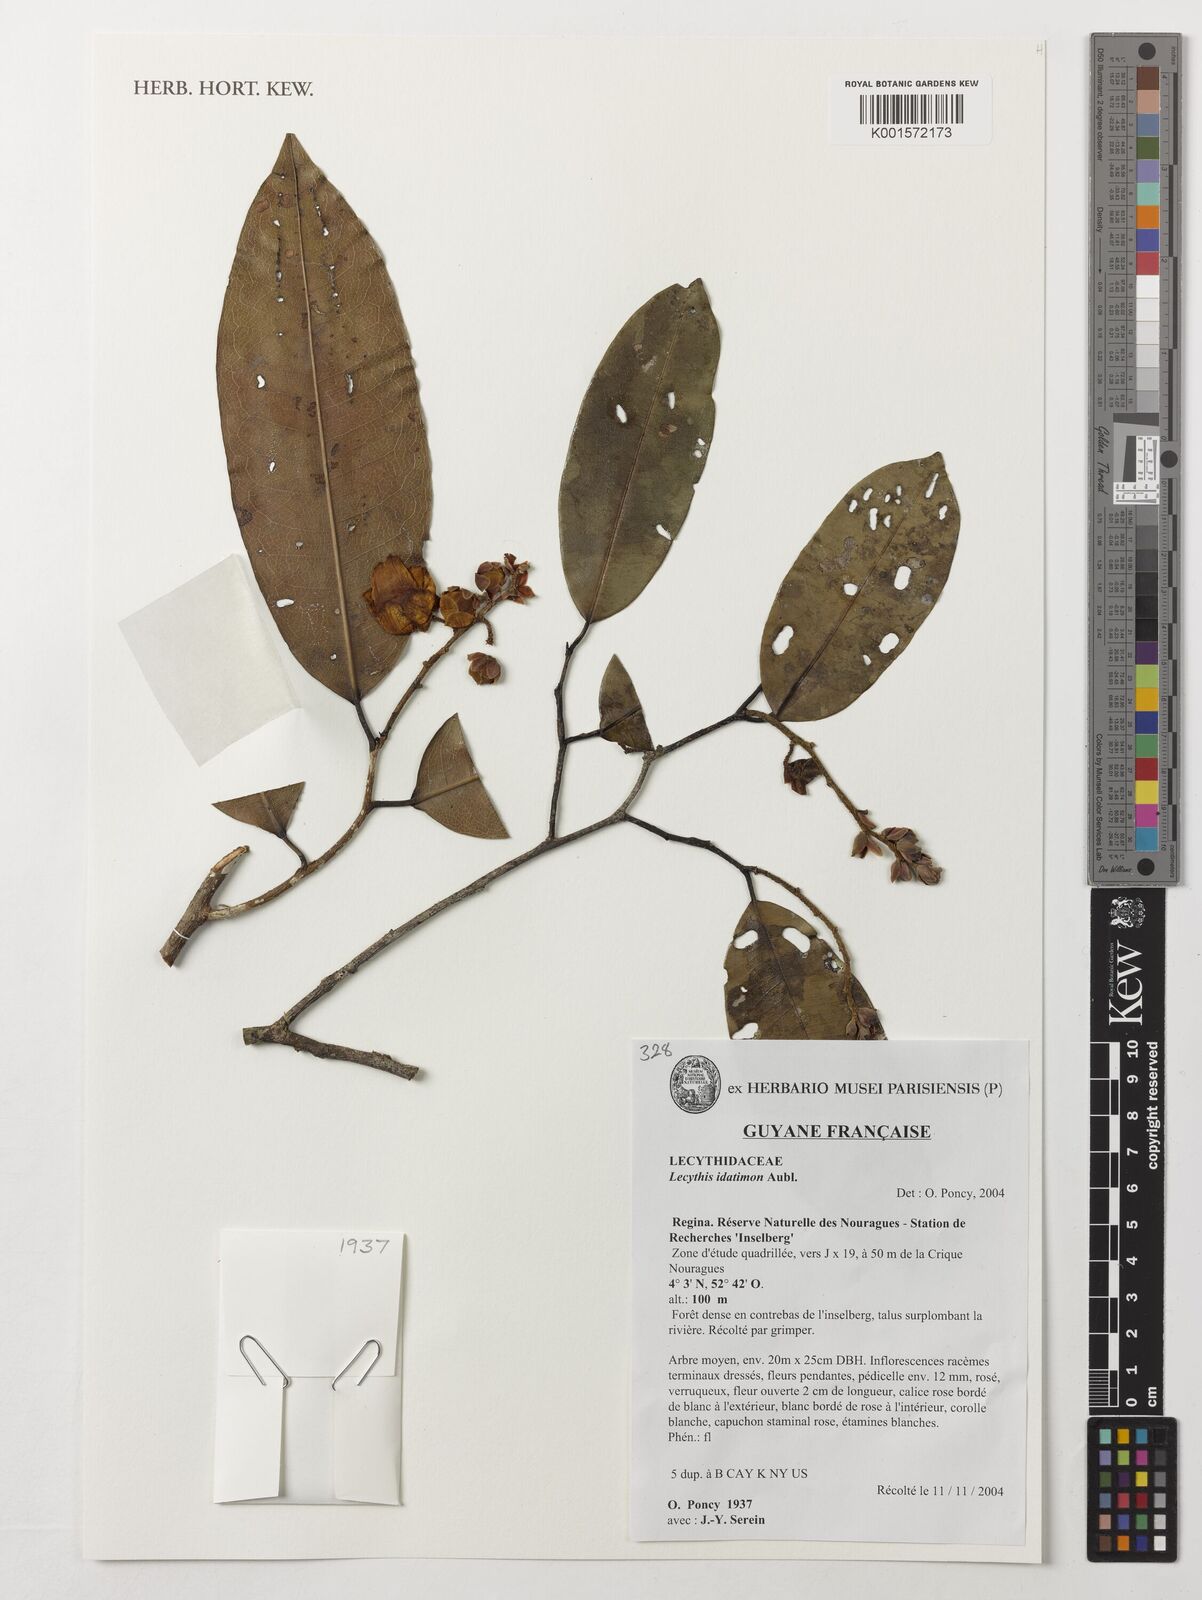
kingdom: Plantae
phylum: Tracheophyta
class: Magnoliopsida
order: Ericales
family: Lecythidaceae
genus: Lecythis
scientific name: Lecythis idatimon
